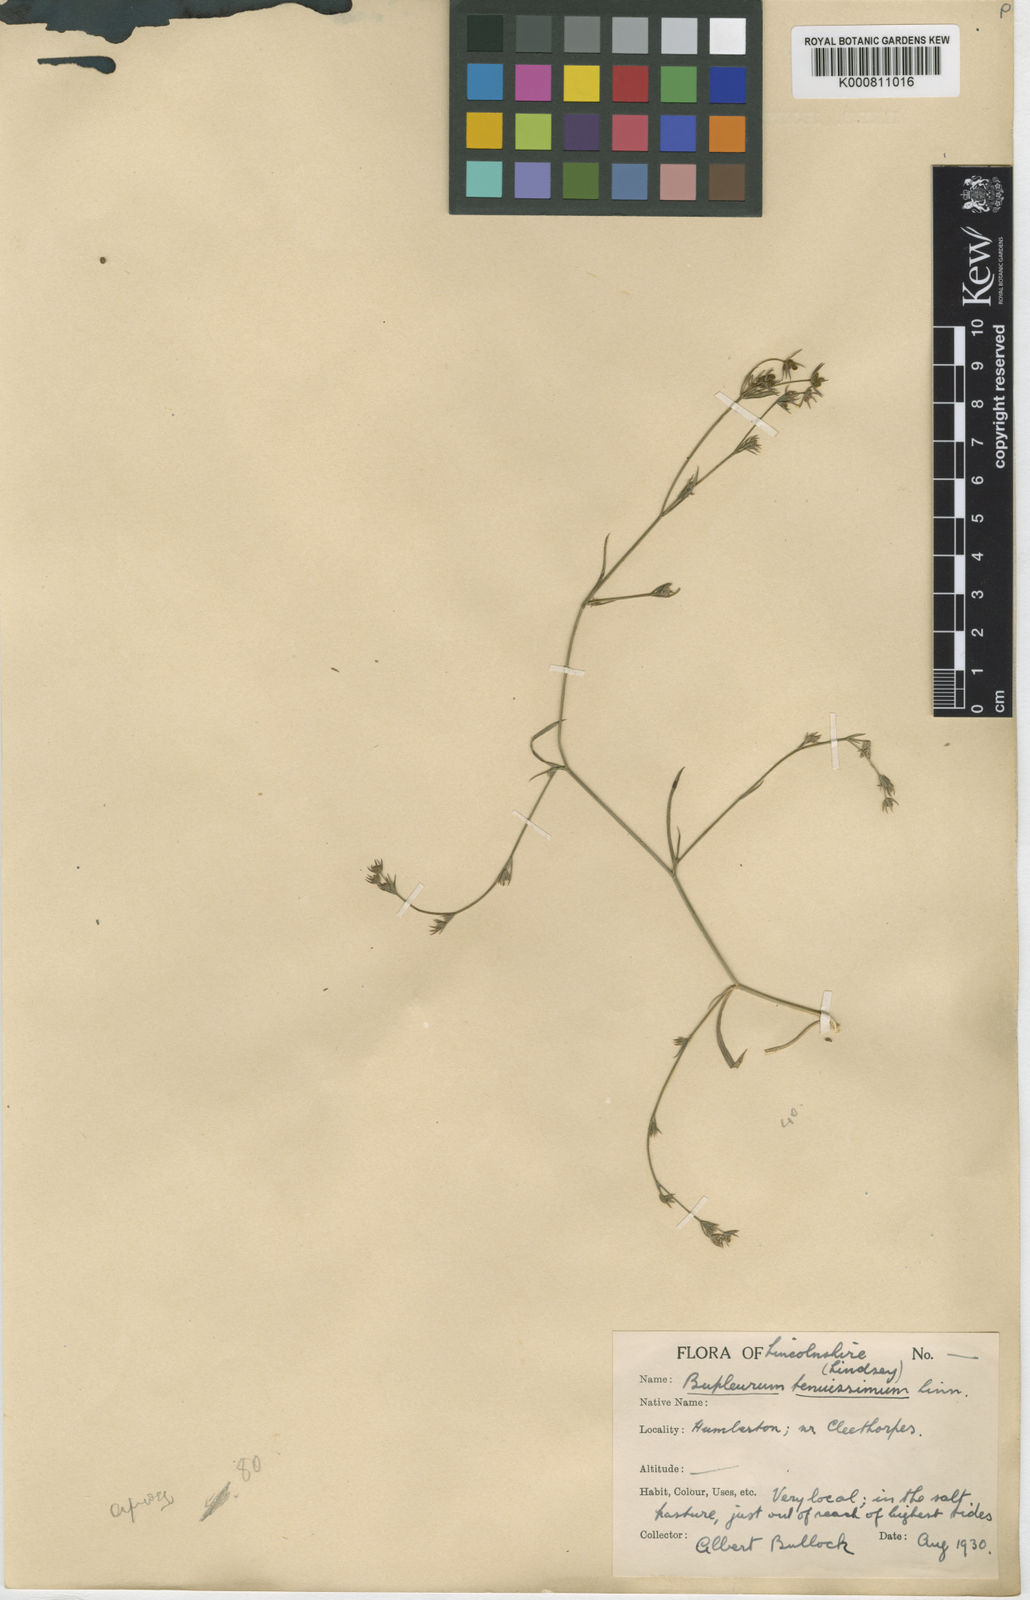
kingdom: Plantae
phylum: Tracheophyta
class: Magnoliopsida
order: Apiales
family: Apiaceae
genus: Bupleurum
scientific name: Bupleurum tenuissimum
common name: Slender hare's-ear
